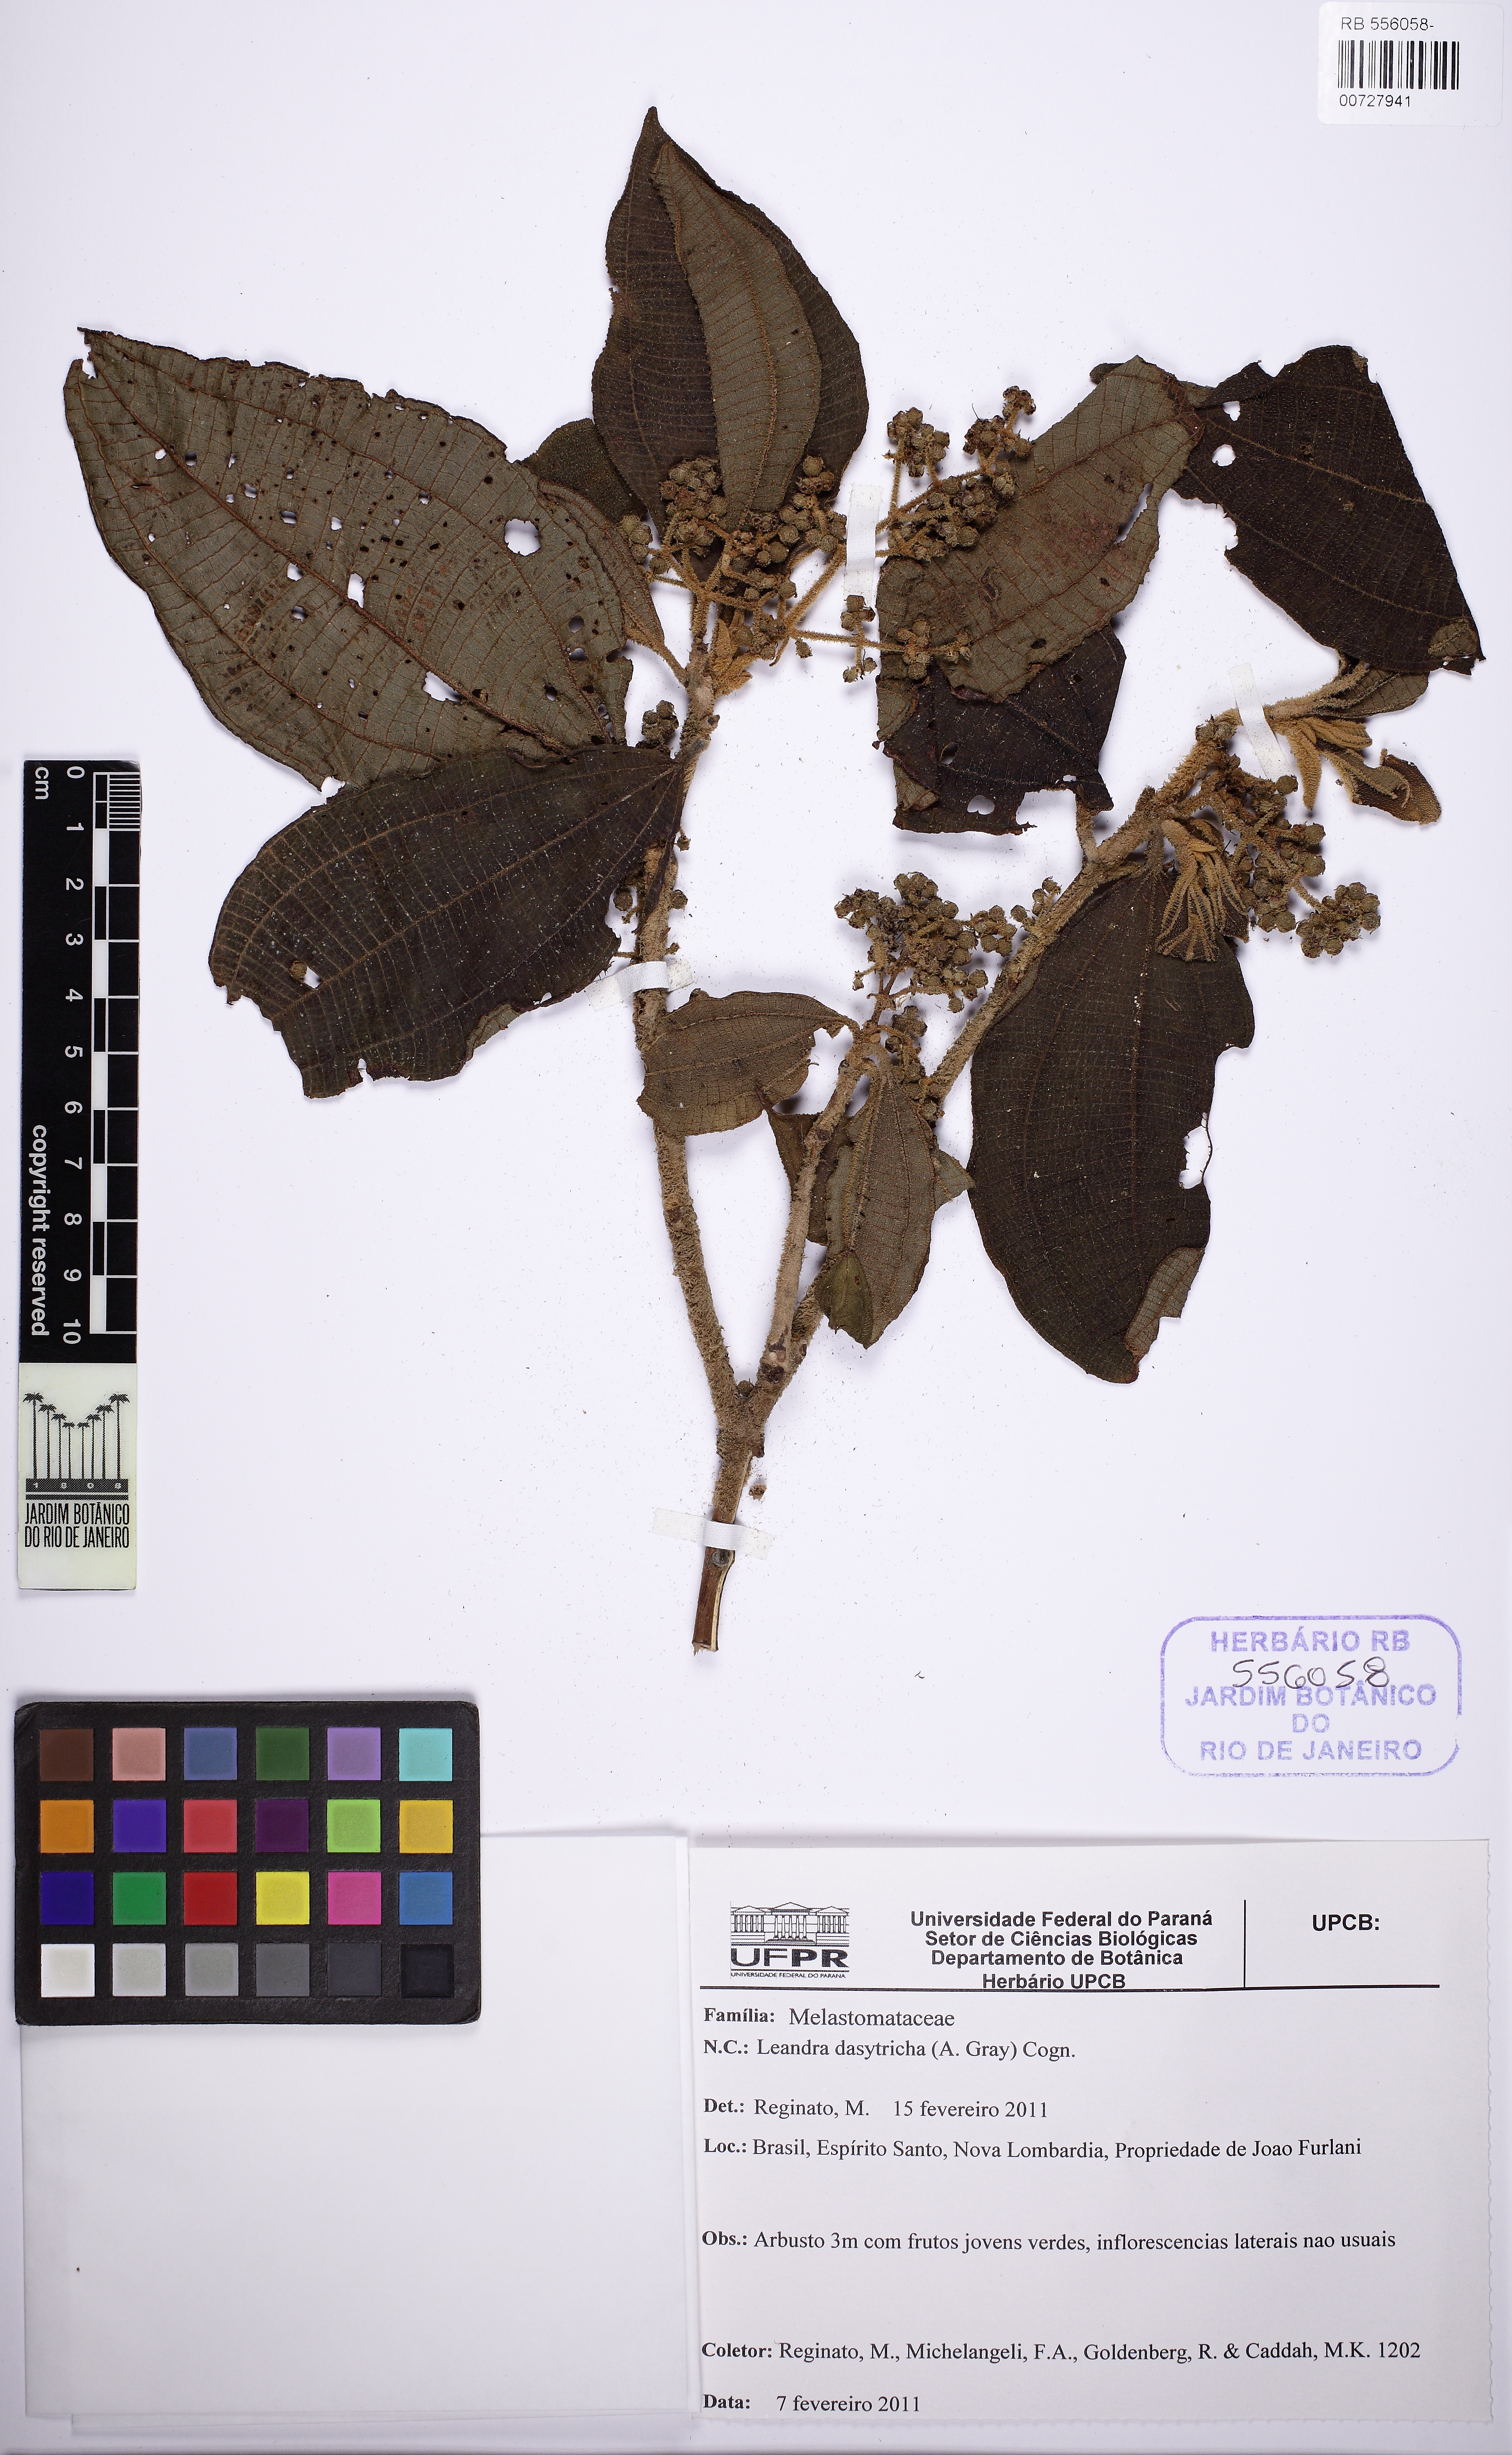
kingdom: Plantae
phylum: Tracheophyta
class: Magnoliopsida
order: Myrtales
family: Melastomataceae
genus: Miconia
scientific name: Miconia dasytricha
